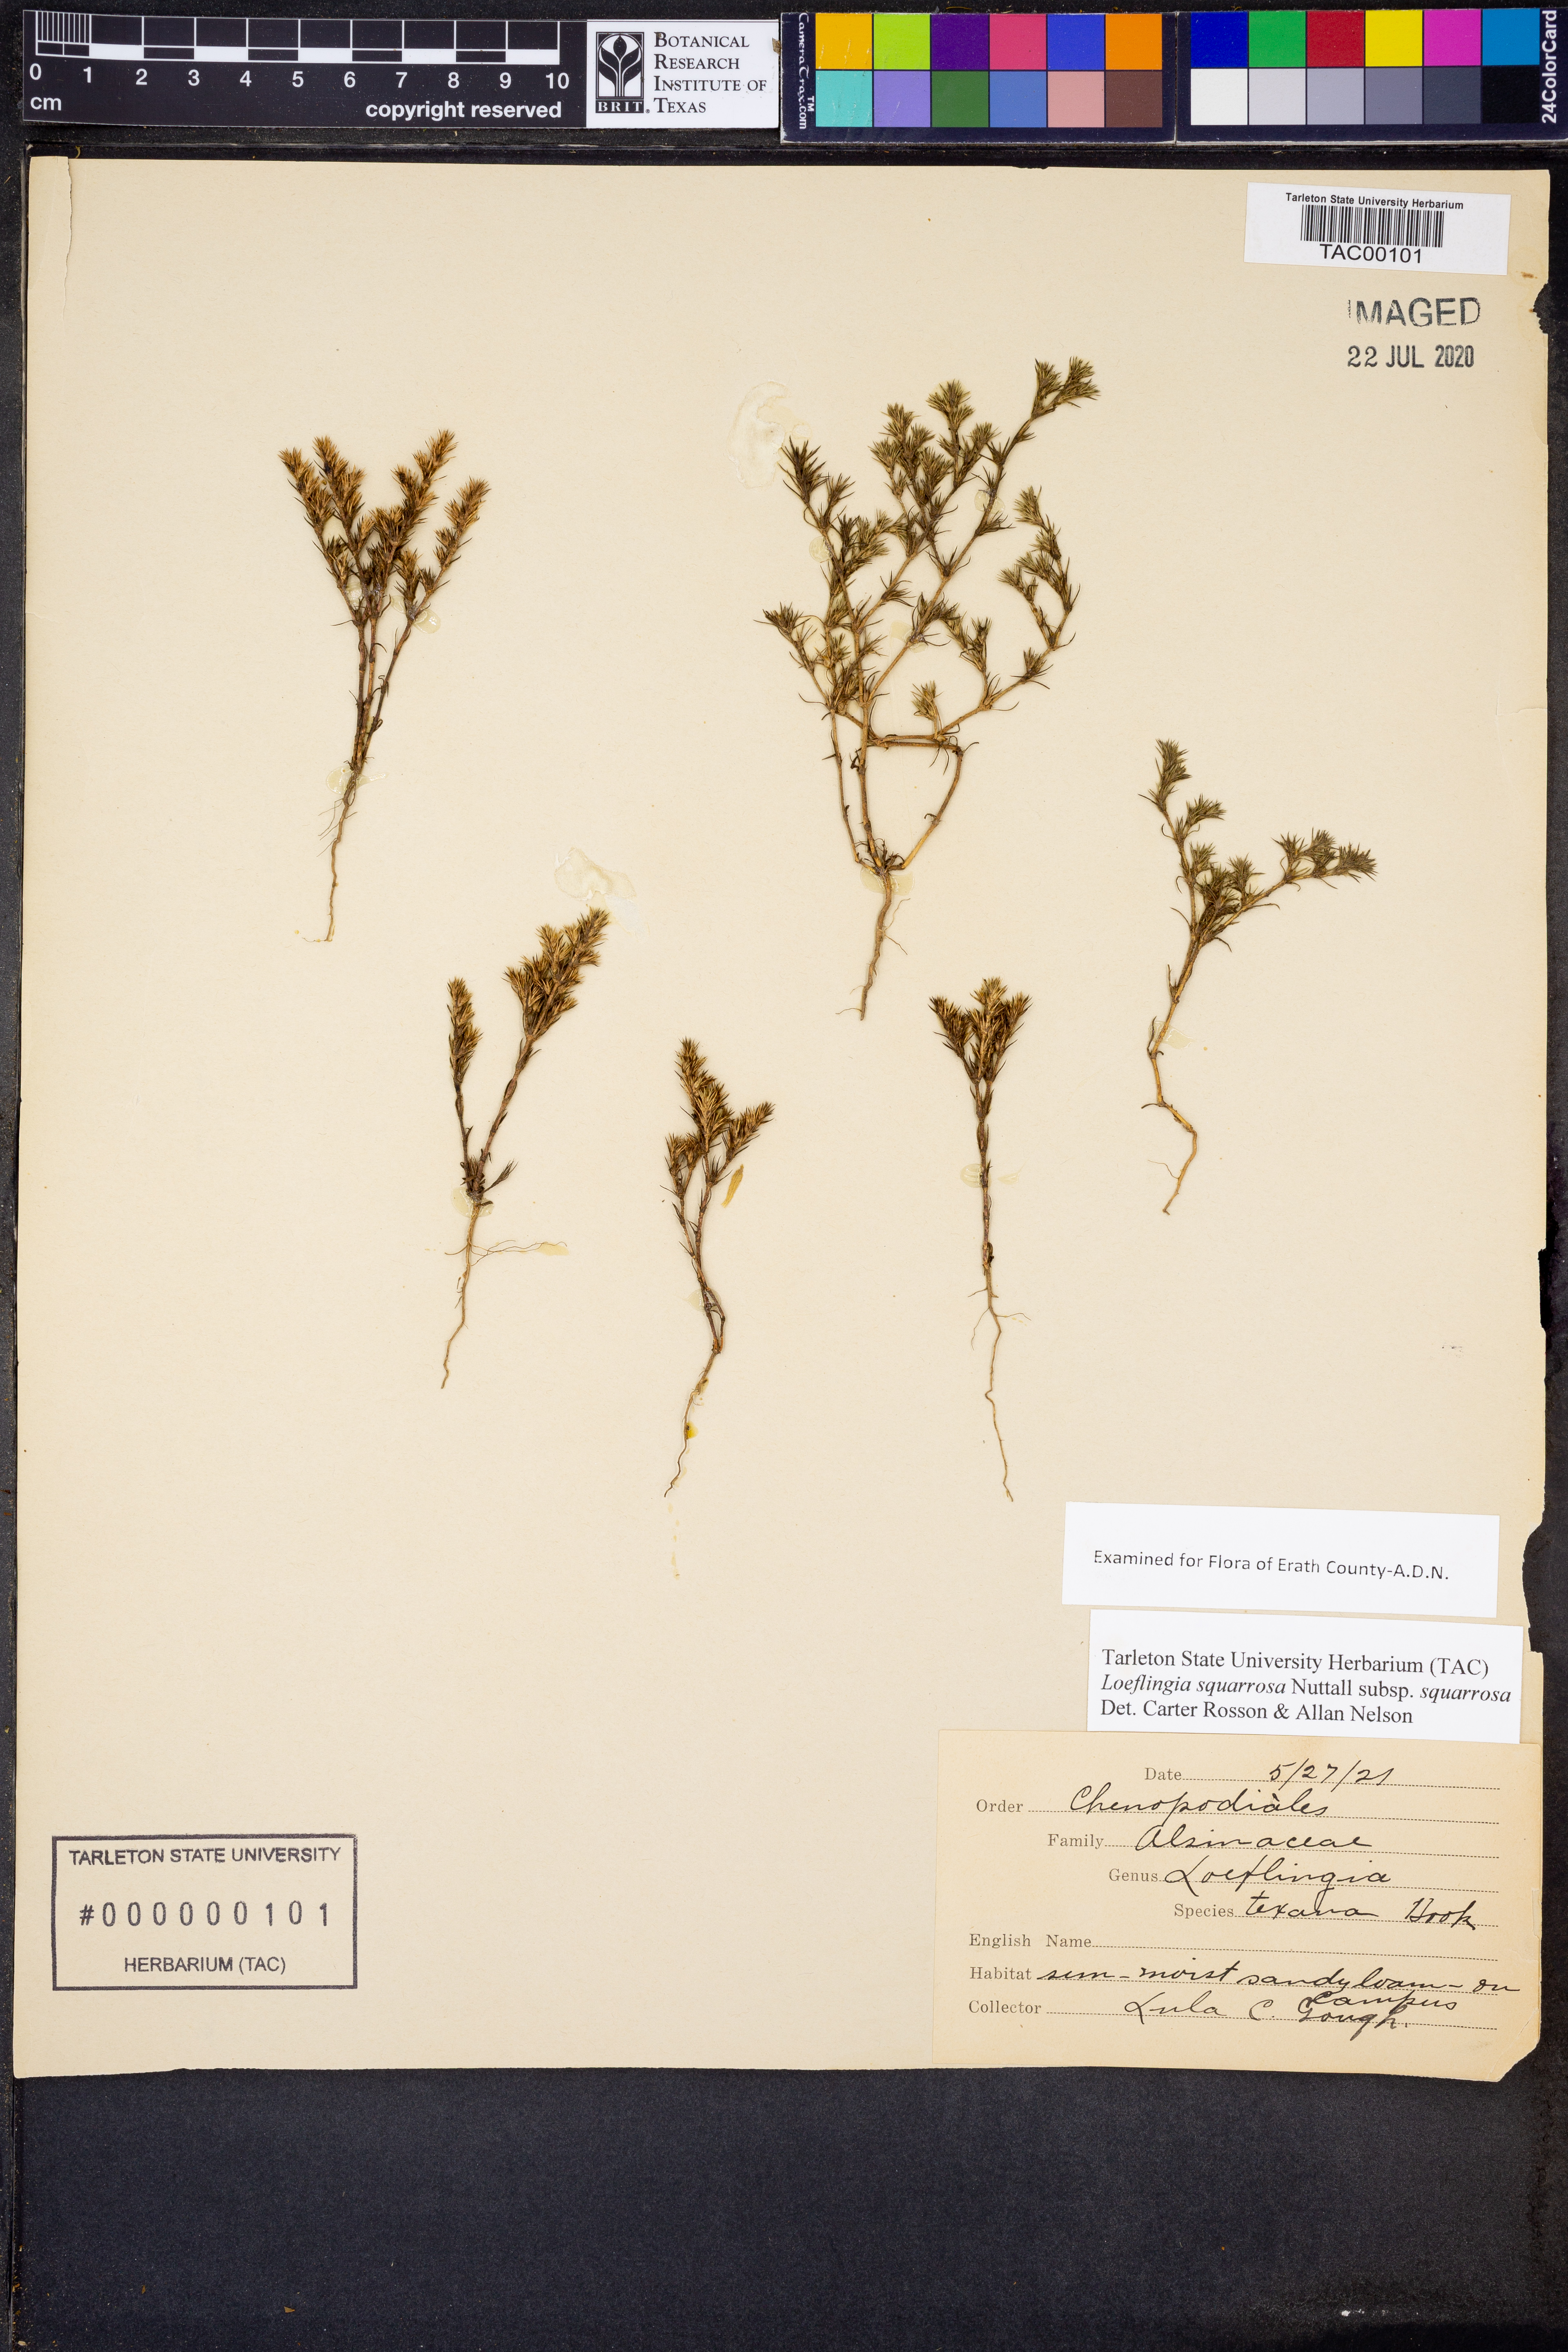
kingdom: Plantae
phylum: Tracheophyta
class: Magnoliopsida
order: Caryophyllales
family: Caryophyllaceae
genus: Loeflingia
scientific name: Loeflingia squarrosa
